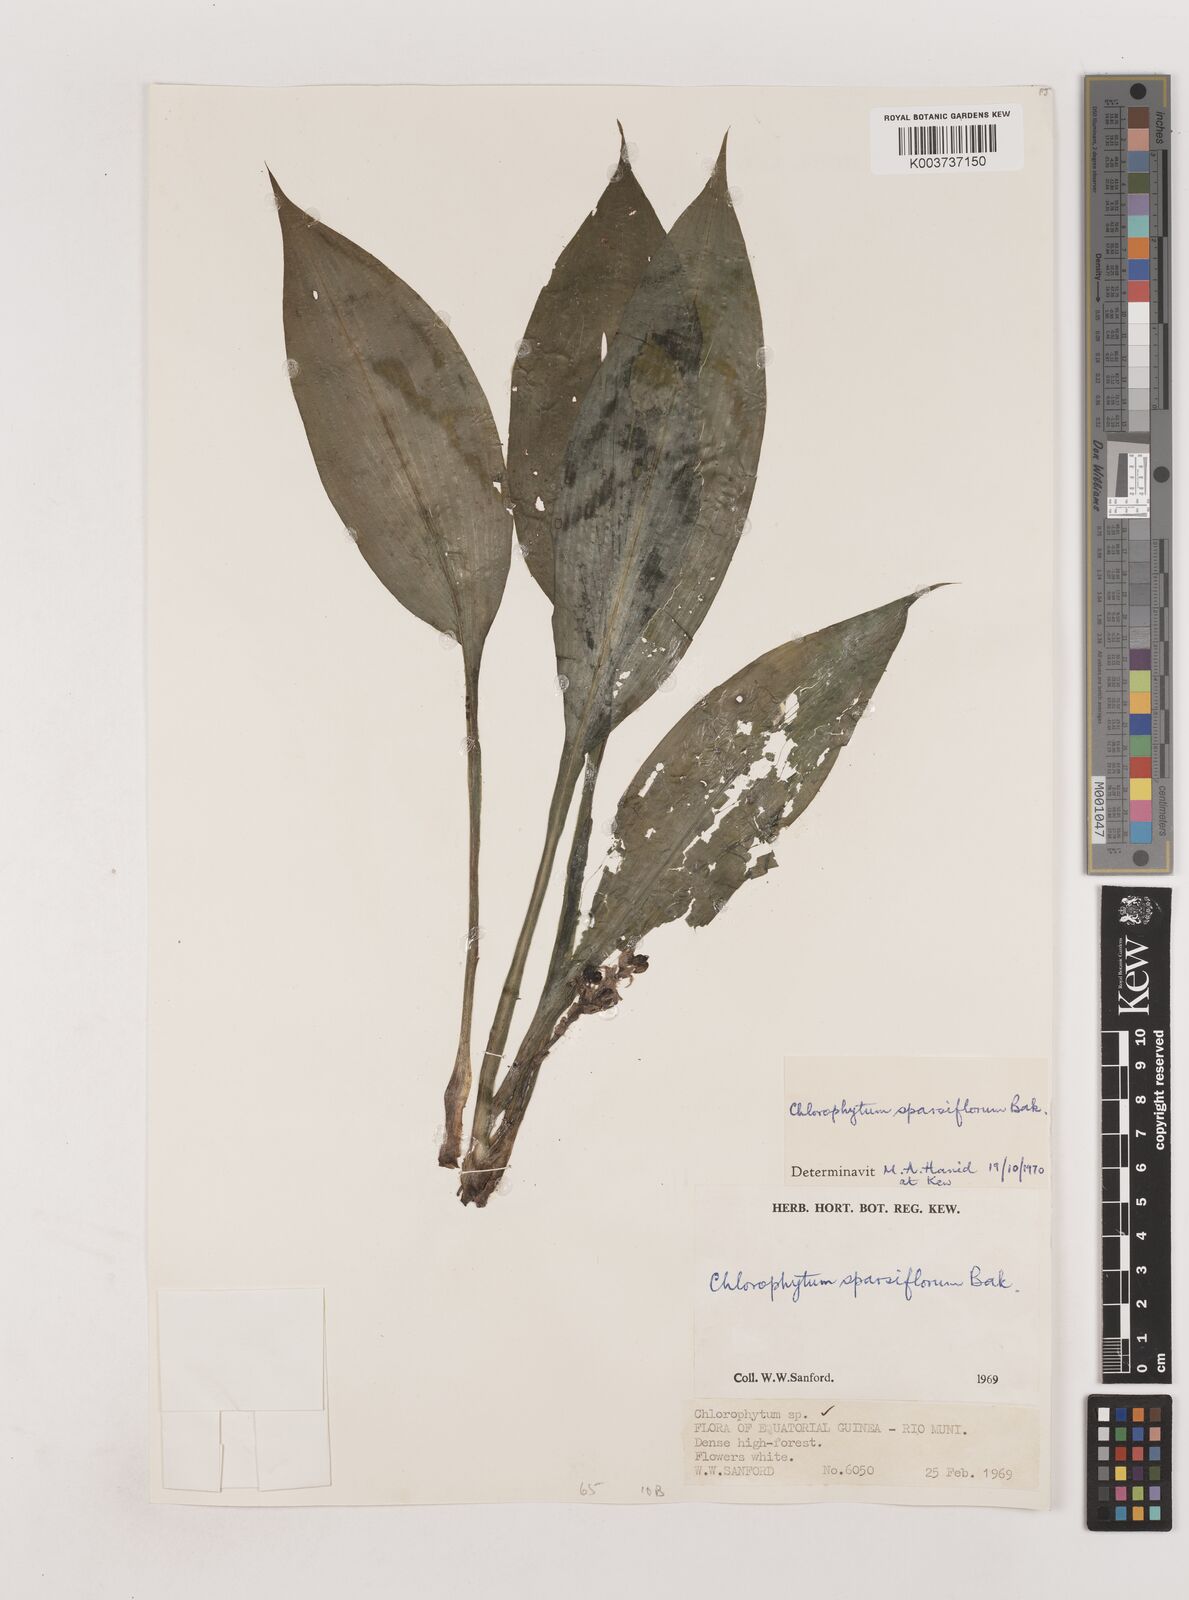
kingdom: Plantae
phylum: Tracheophyta
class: Liliopsida
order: Asparagales
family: Asparagaceae
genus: Chlorophytum
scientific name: Chlorophytum sparsiflorum
